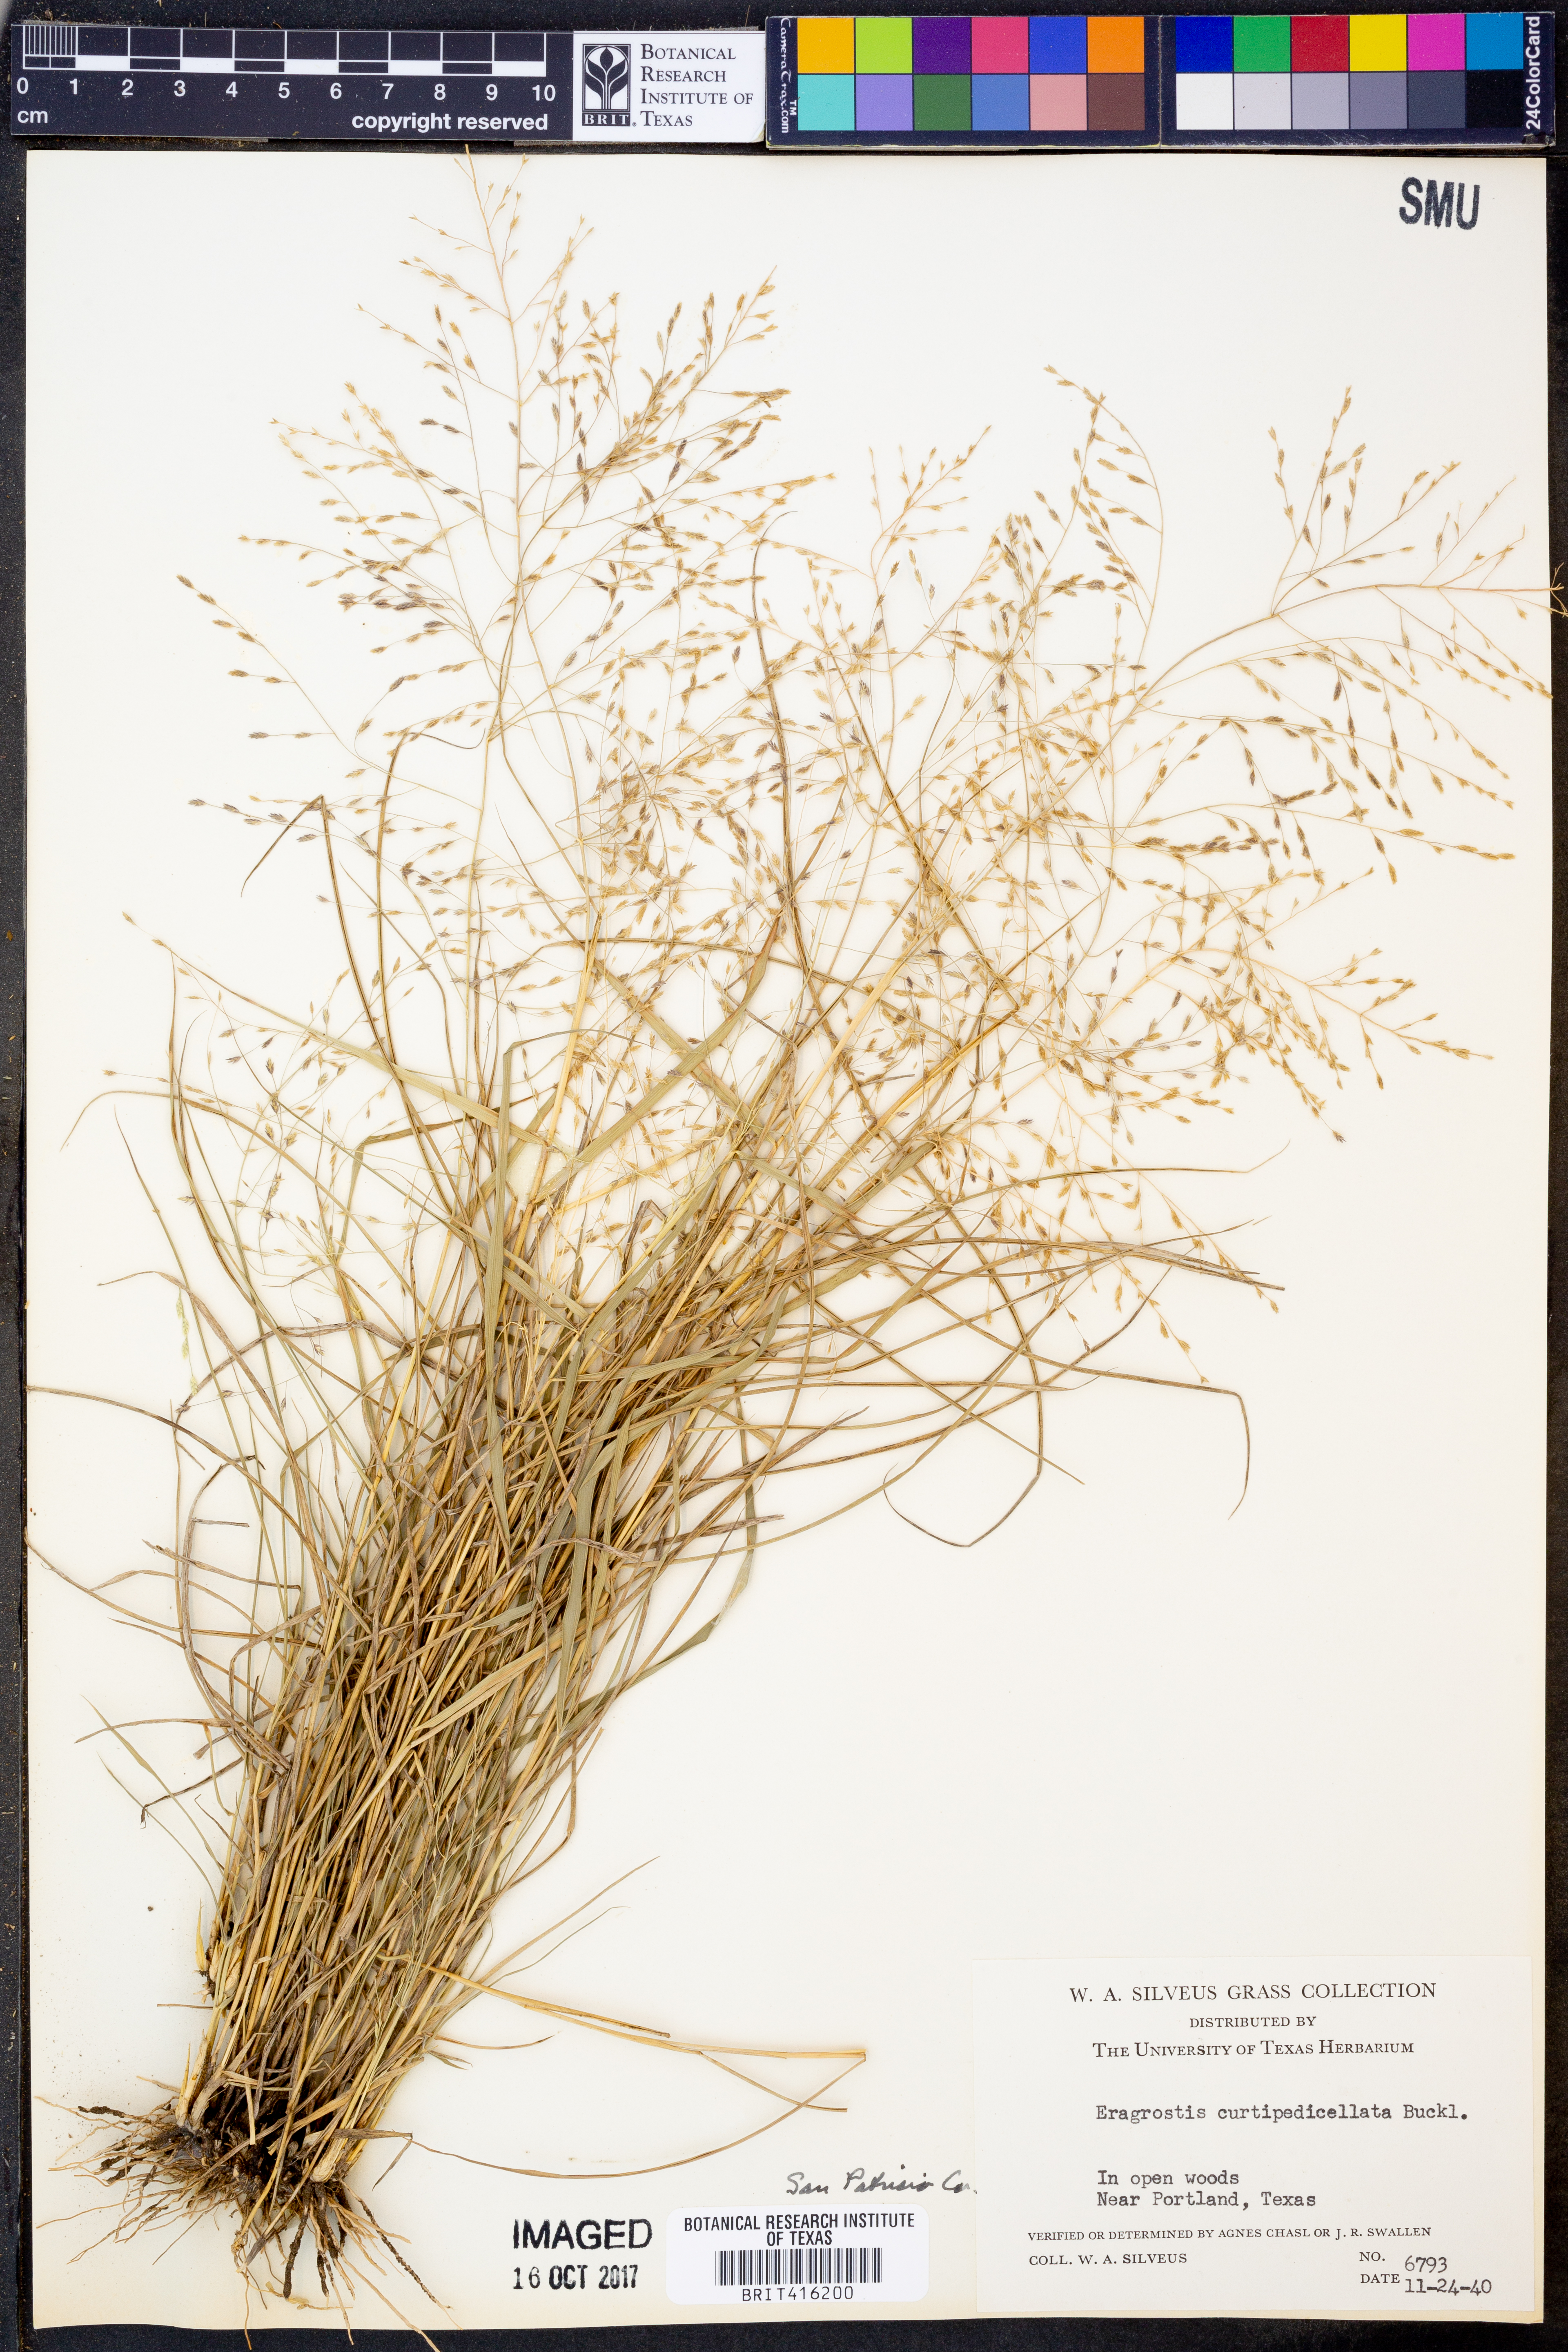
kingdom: Plantae
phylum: Tracheophyta
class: Liliopsida
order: Poales
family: Poaceae
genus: Eragrostis
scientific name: Eragrostis curtipedicellata
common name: Gummy love grass
